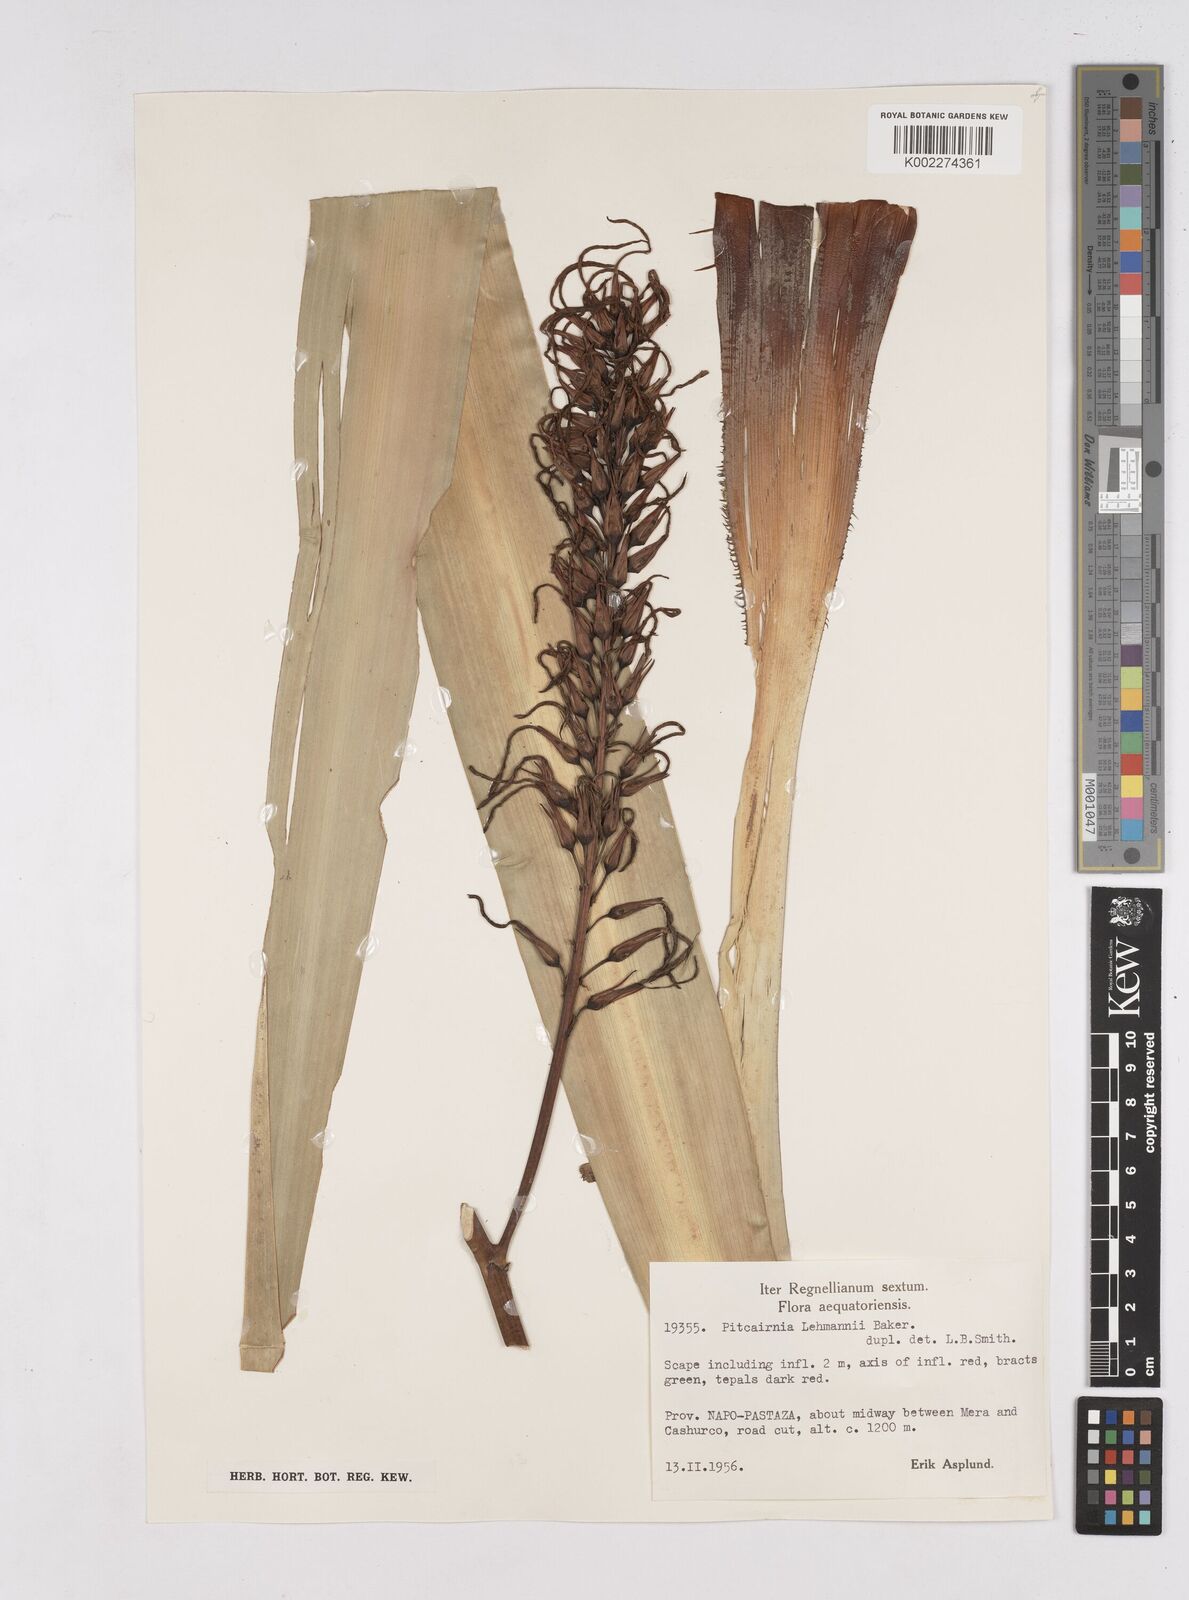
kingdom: Plantae
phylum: Tracheophyta
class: Liliopsida
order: Poales
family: Bromeliaceae
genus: Pitcairnia
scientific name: Pitcairnia lehmannii
